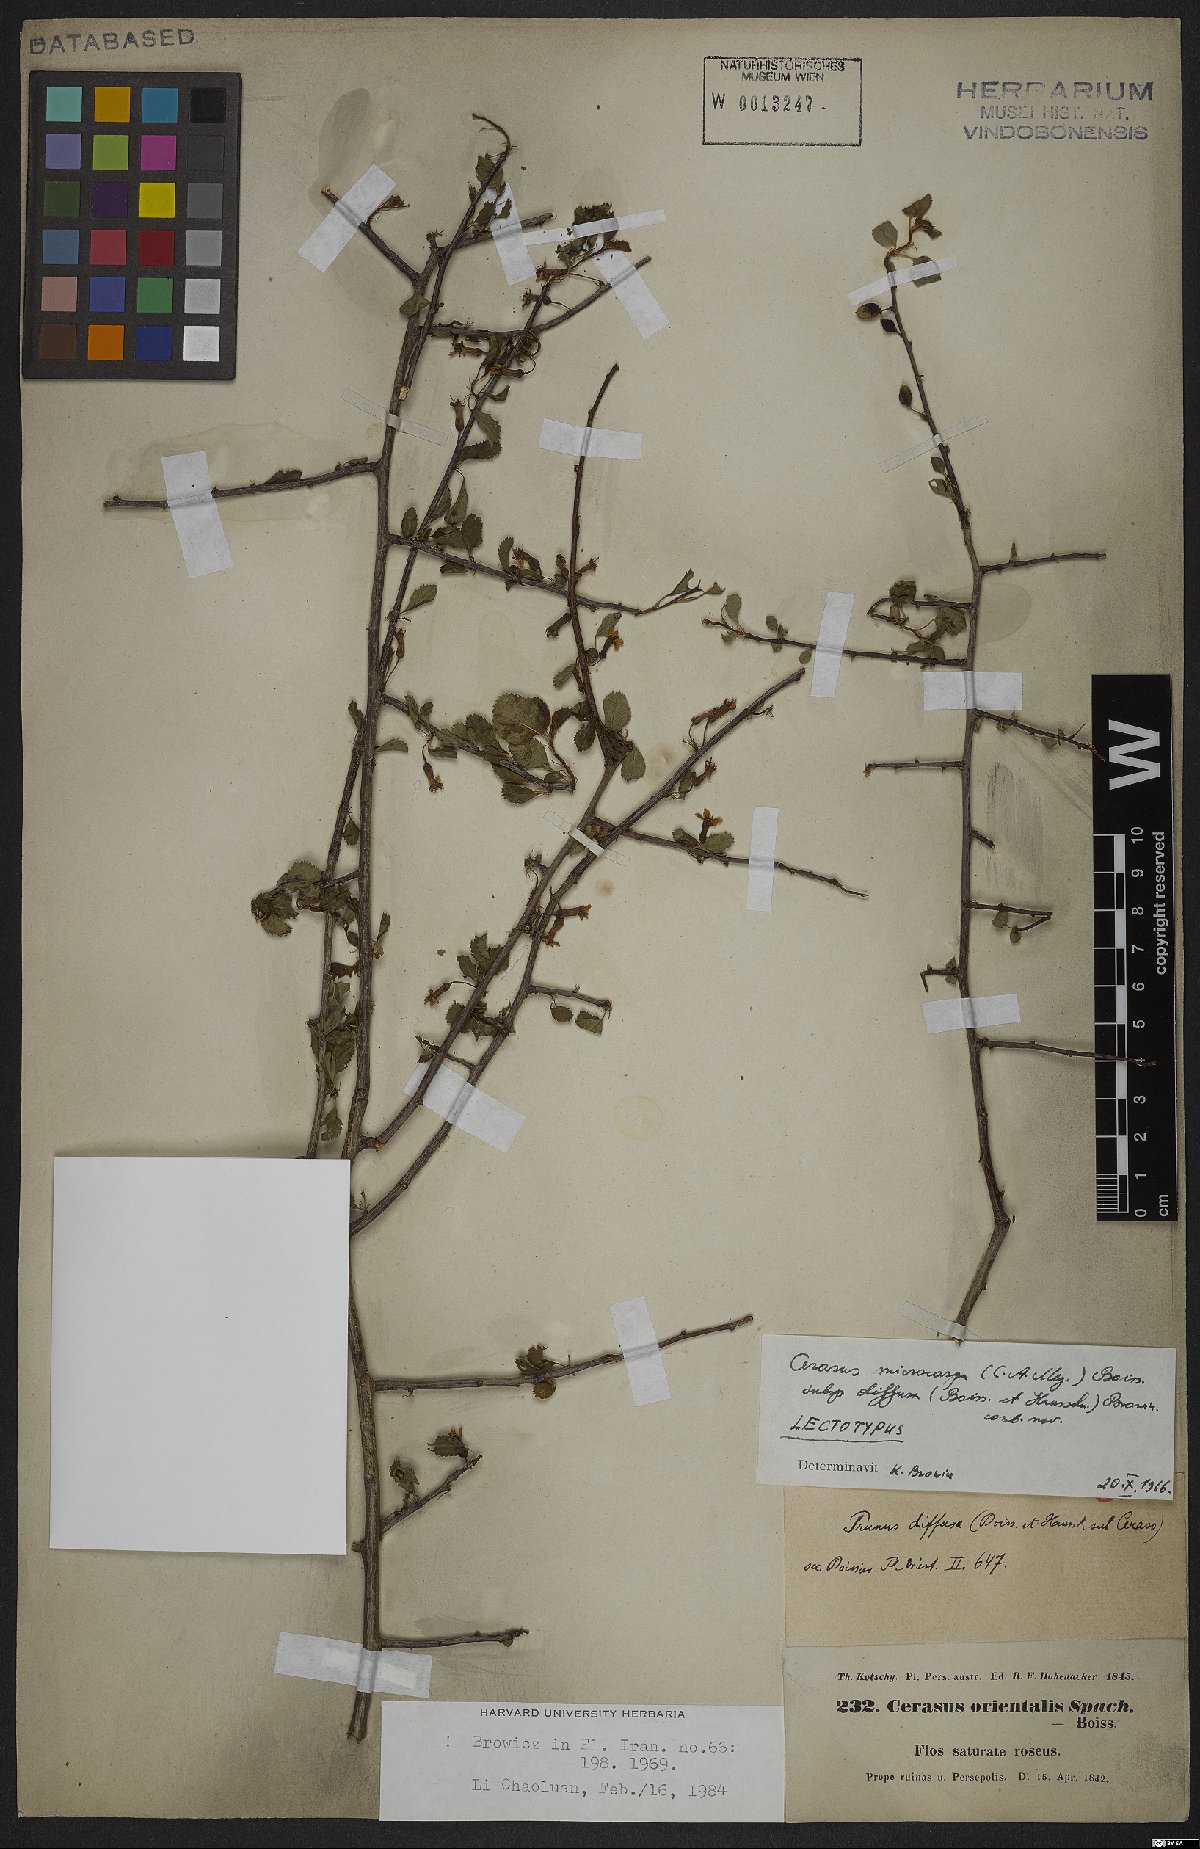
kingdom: Plantae
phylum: Tracheophyta
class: Magnoliopsida
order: Rosales
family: Rosaceae
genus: Prunus
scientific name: Prunus microcarpa
